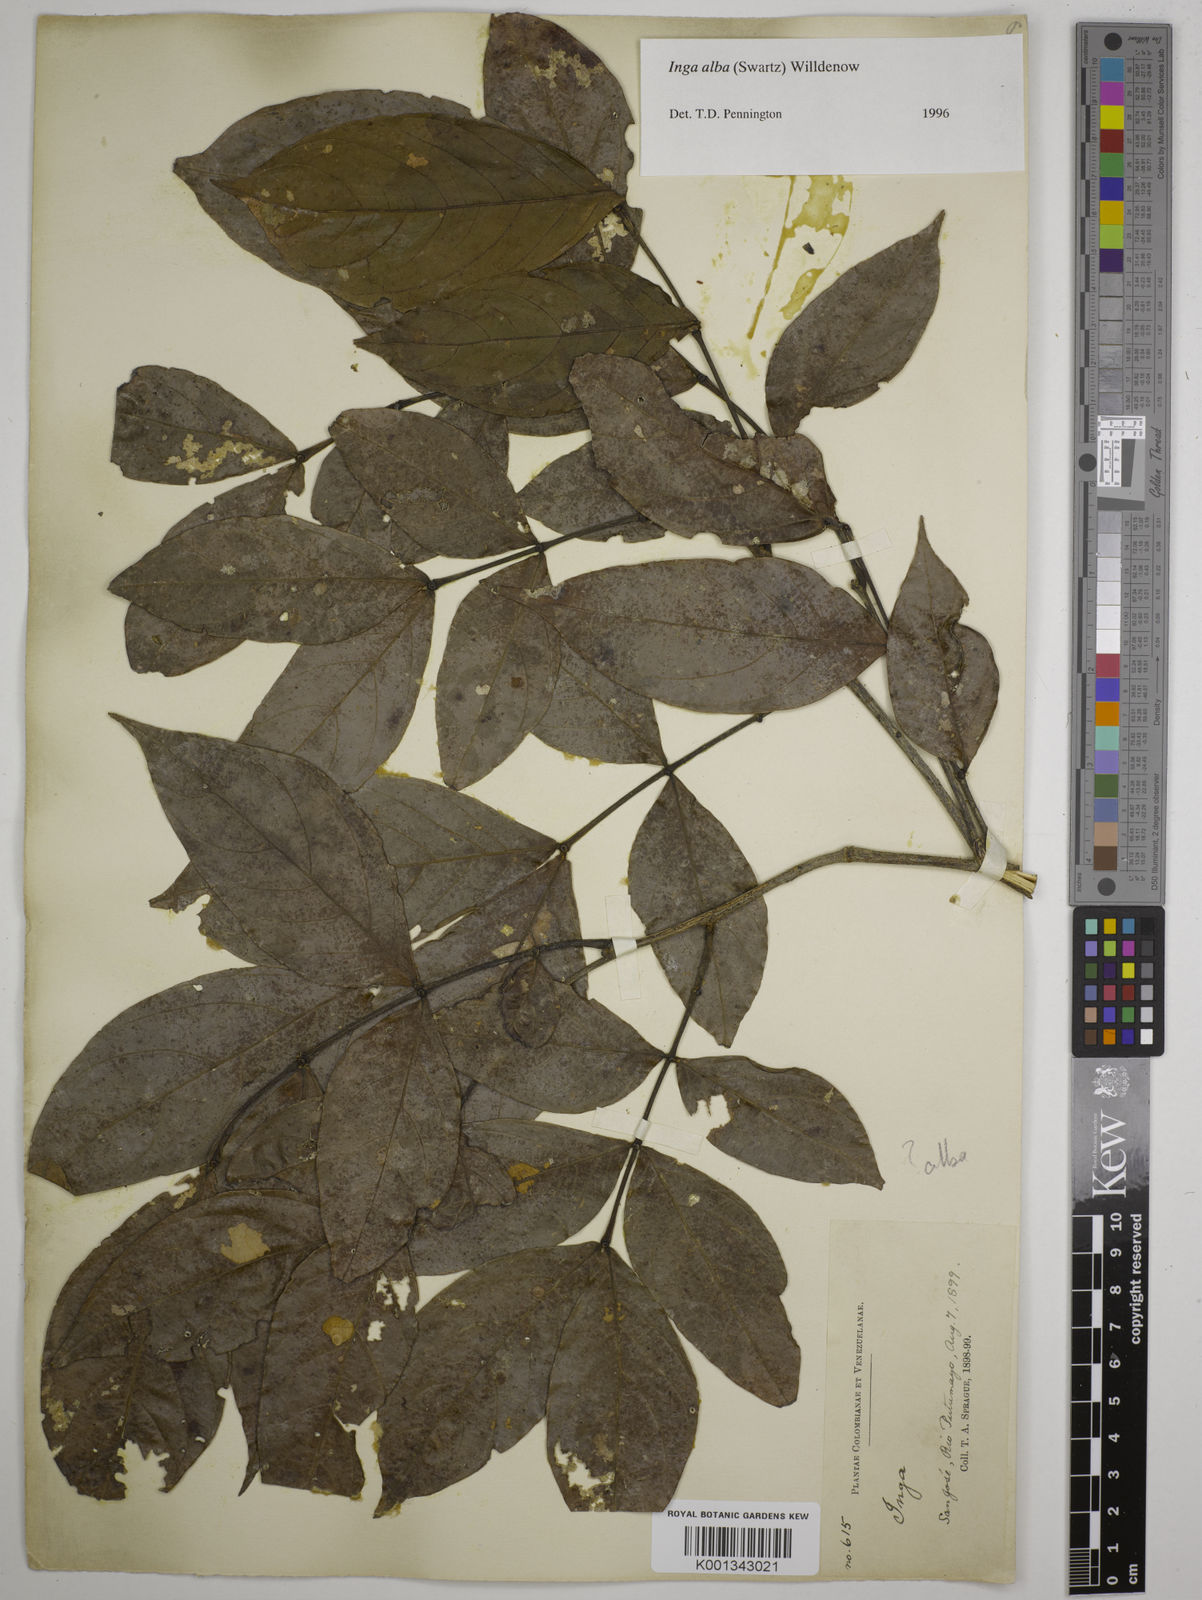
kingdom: Plantae
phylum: Tracheophyta
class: Magnoliopsida
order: Fabales
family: Fabaceae
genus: Inga
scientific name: Inga alba
